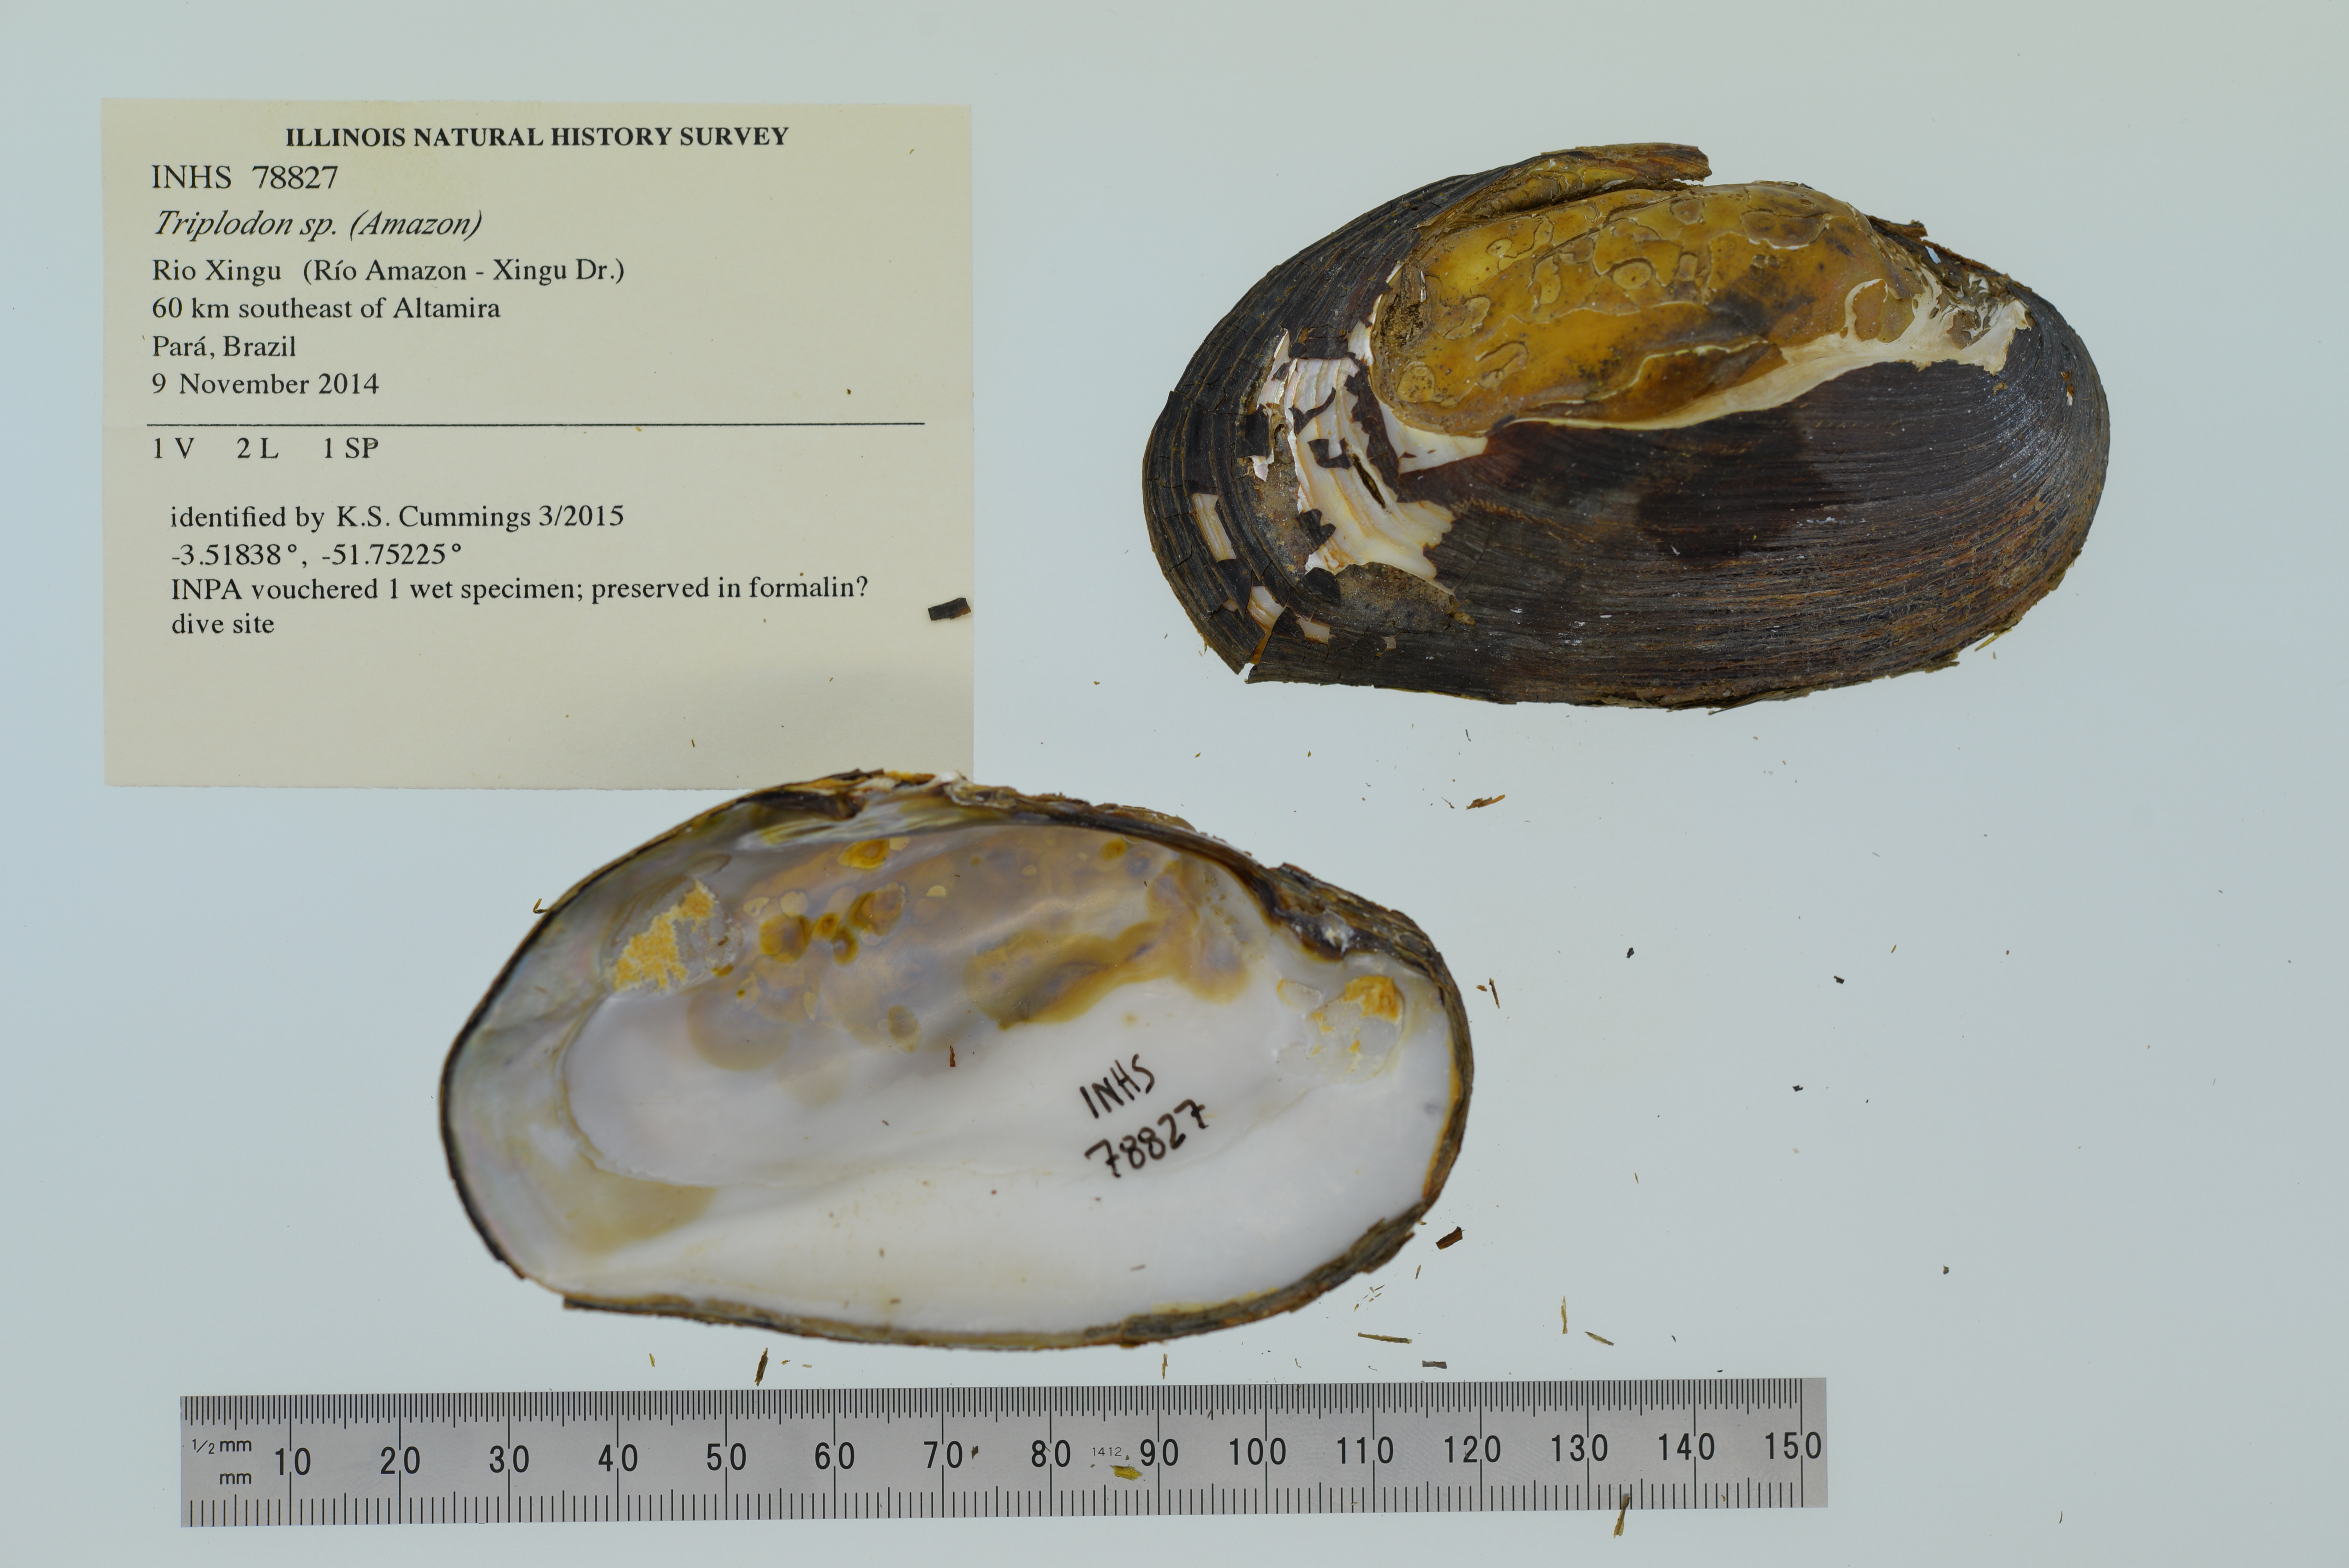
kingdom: Animalia
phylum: Mollusca
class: Bivalvia
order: Unionida
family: Hyriidae
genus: Diplodon
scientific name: Diplodon
